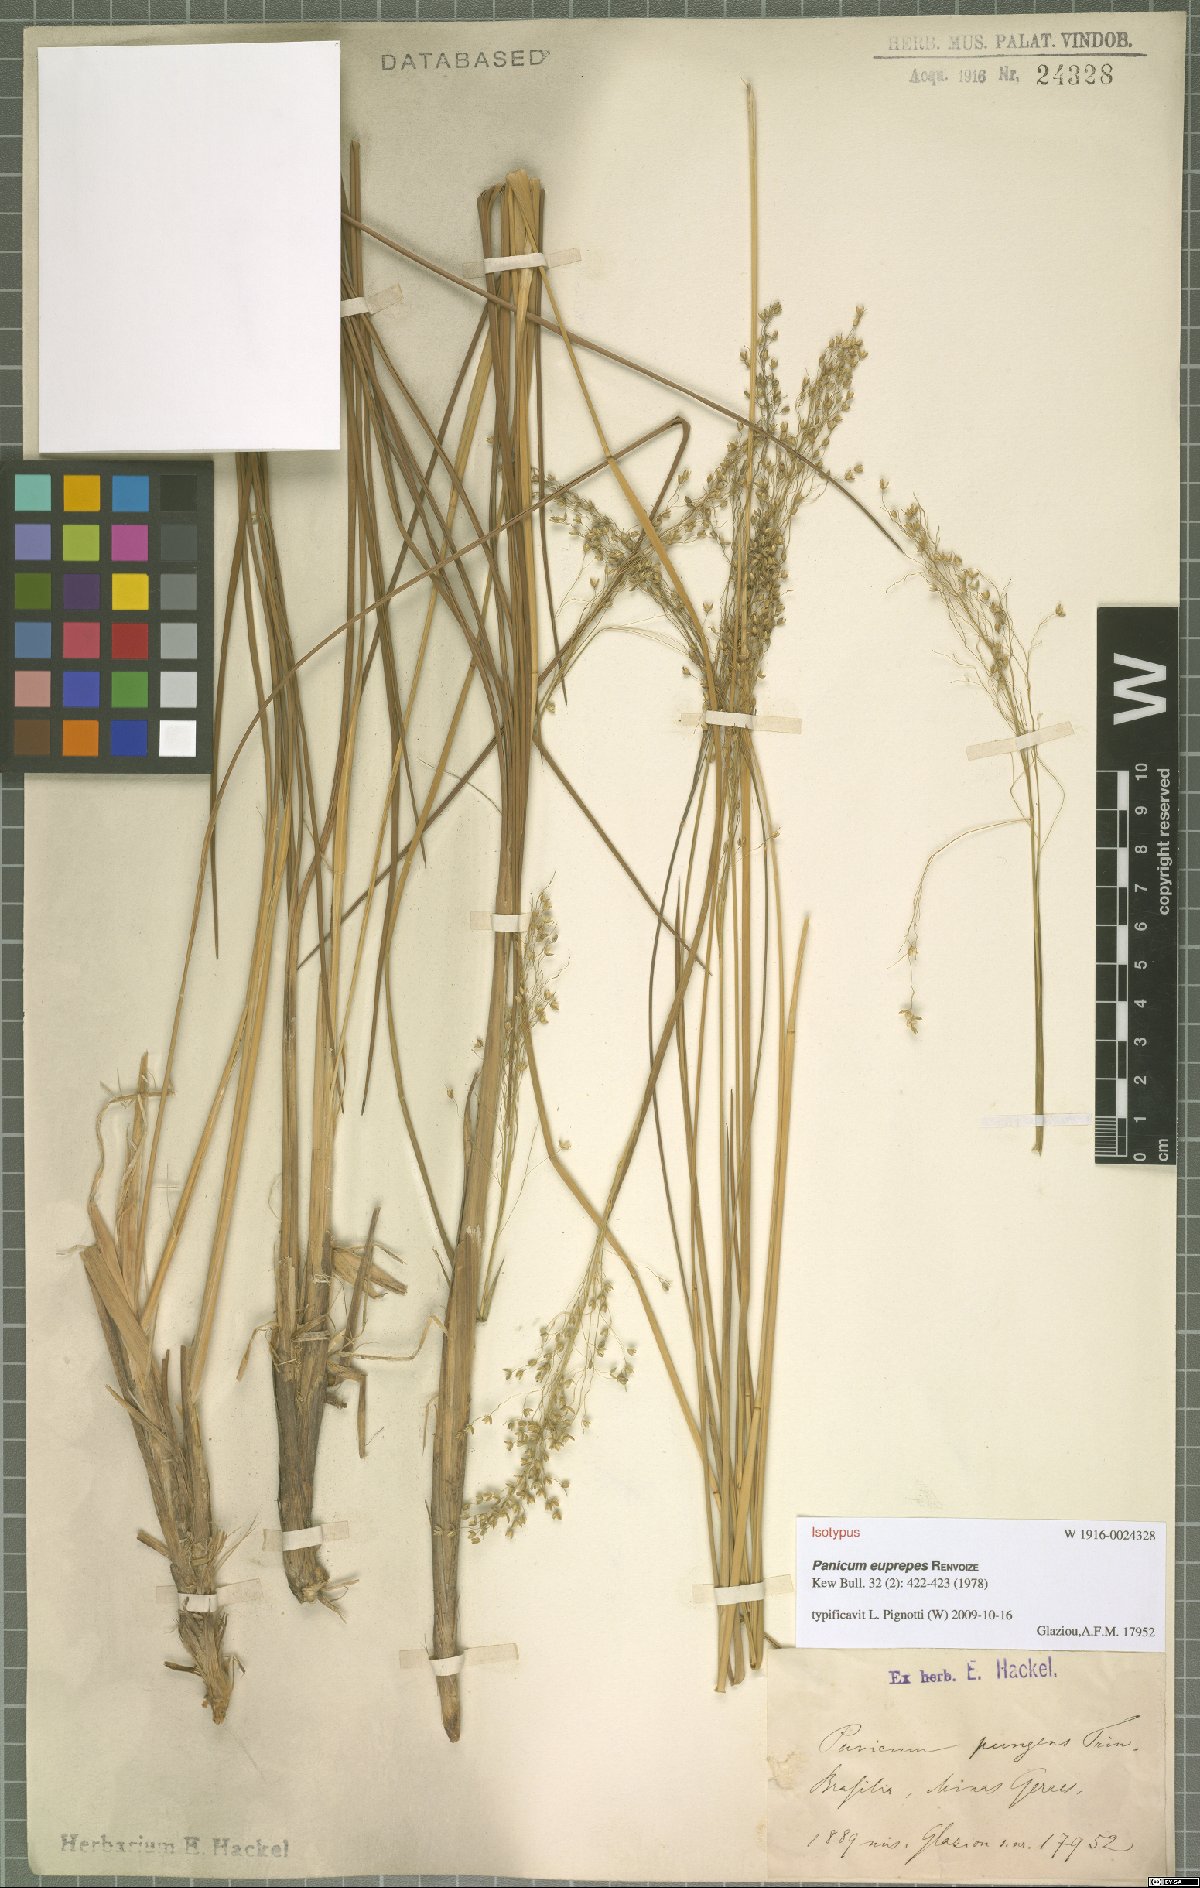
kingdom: Plantae
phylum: Tracheophyta
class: Liliopsida
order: Poales
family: Poaceae
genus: Apochloa
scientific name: Apochloa euprepes
